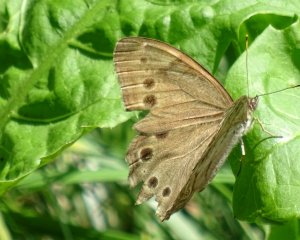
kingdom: Animalia
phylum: Arthropoda
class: Insecta
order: Lepidoptera
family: Nymphalidae
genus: Lethe
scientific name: Lethe anthedon
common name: Northern Pearly-Eye
